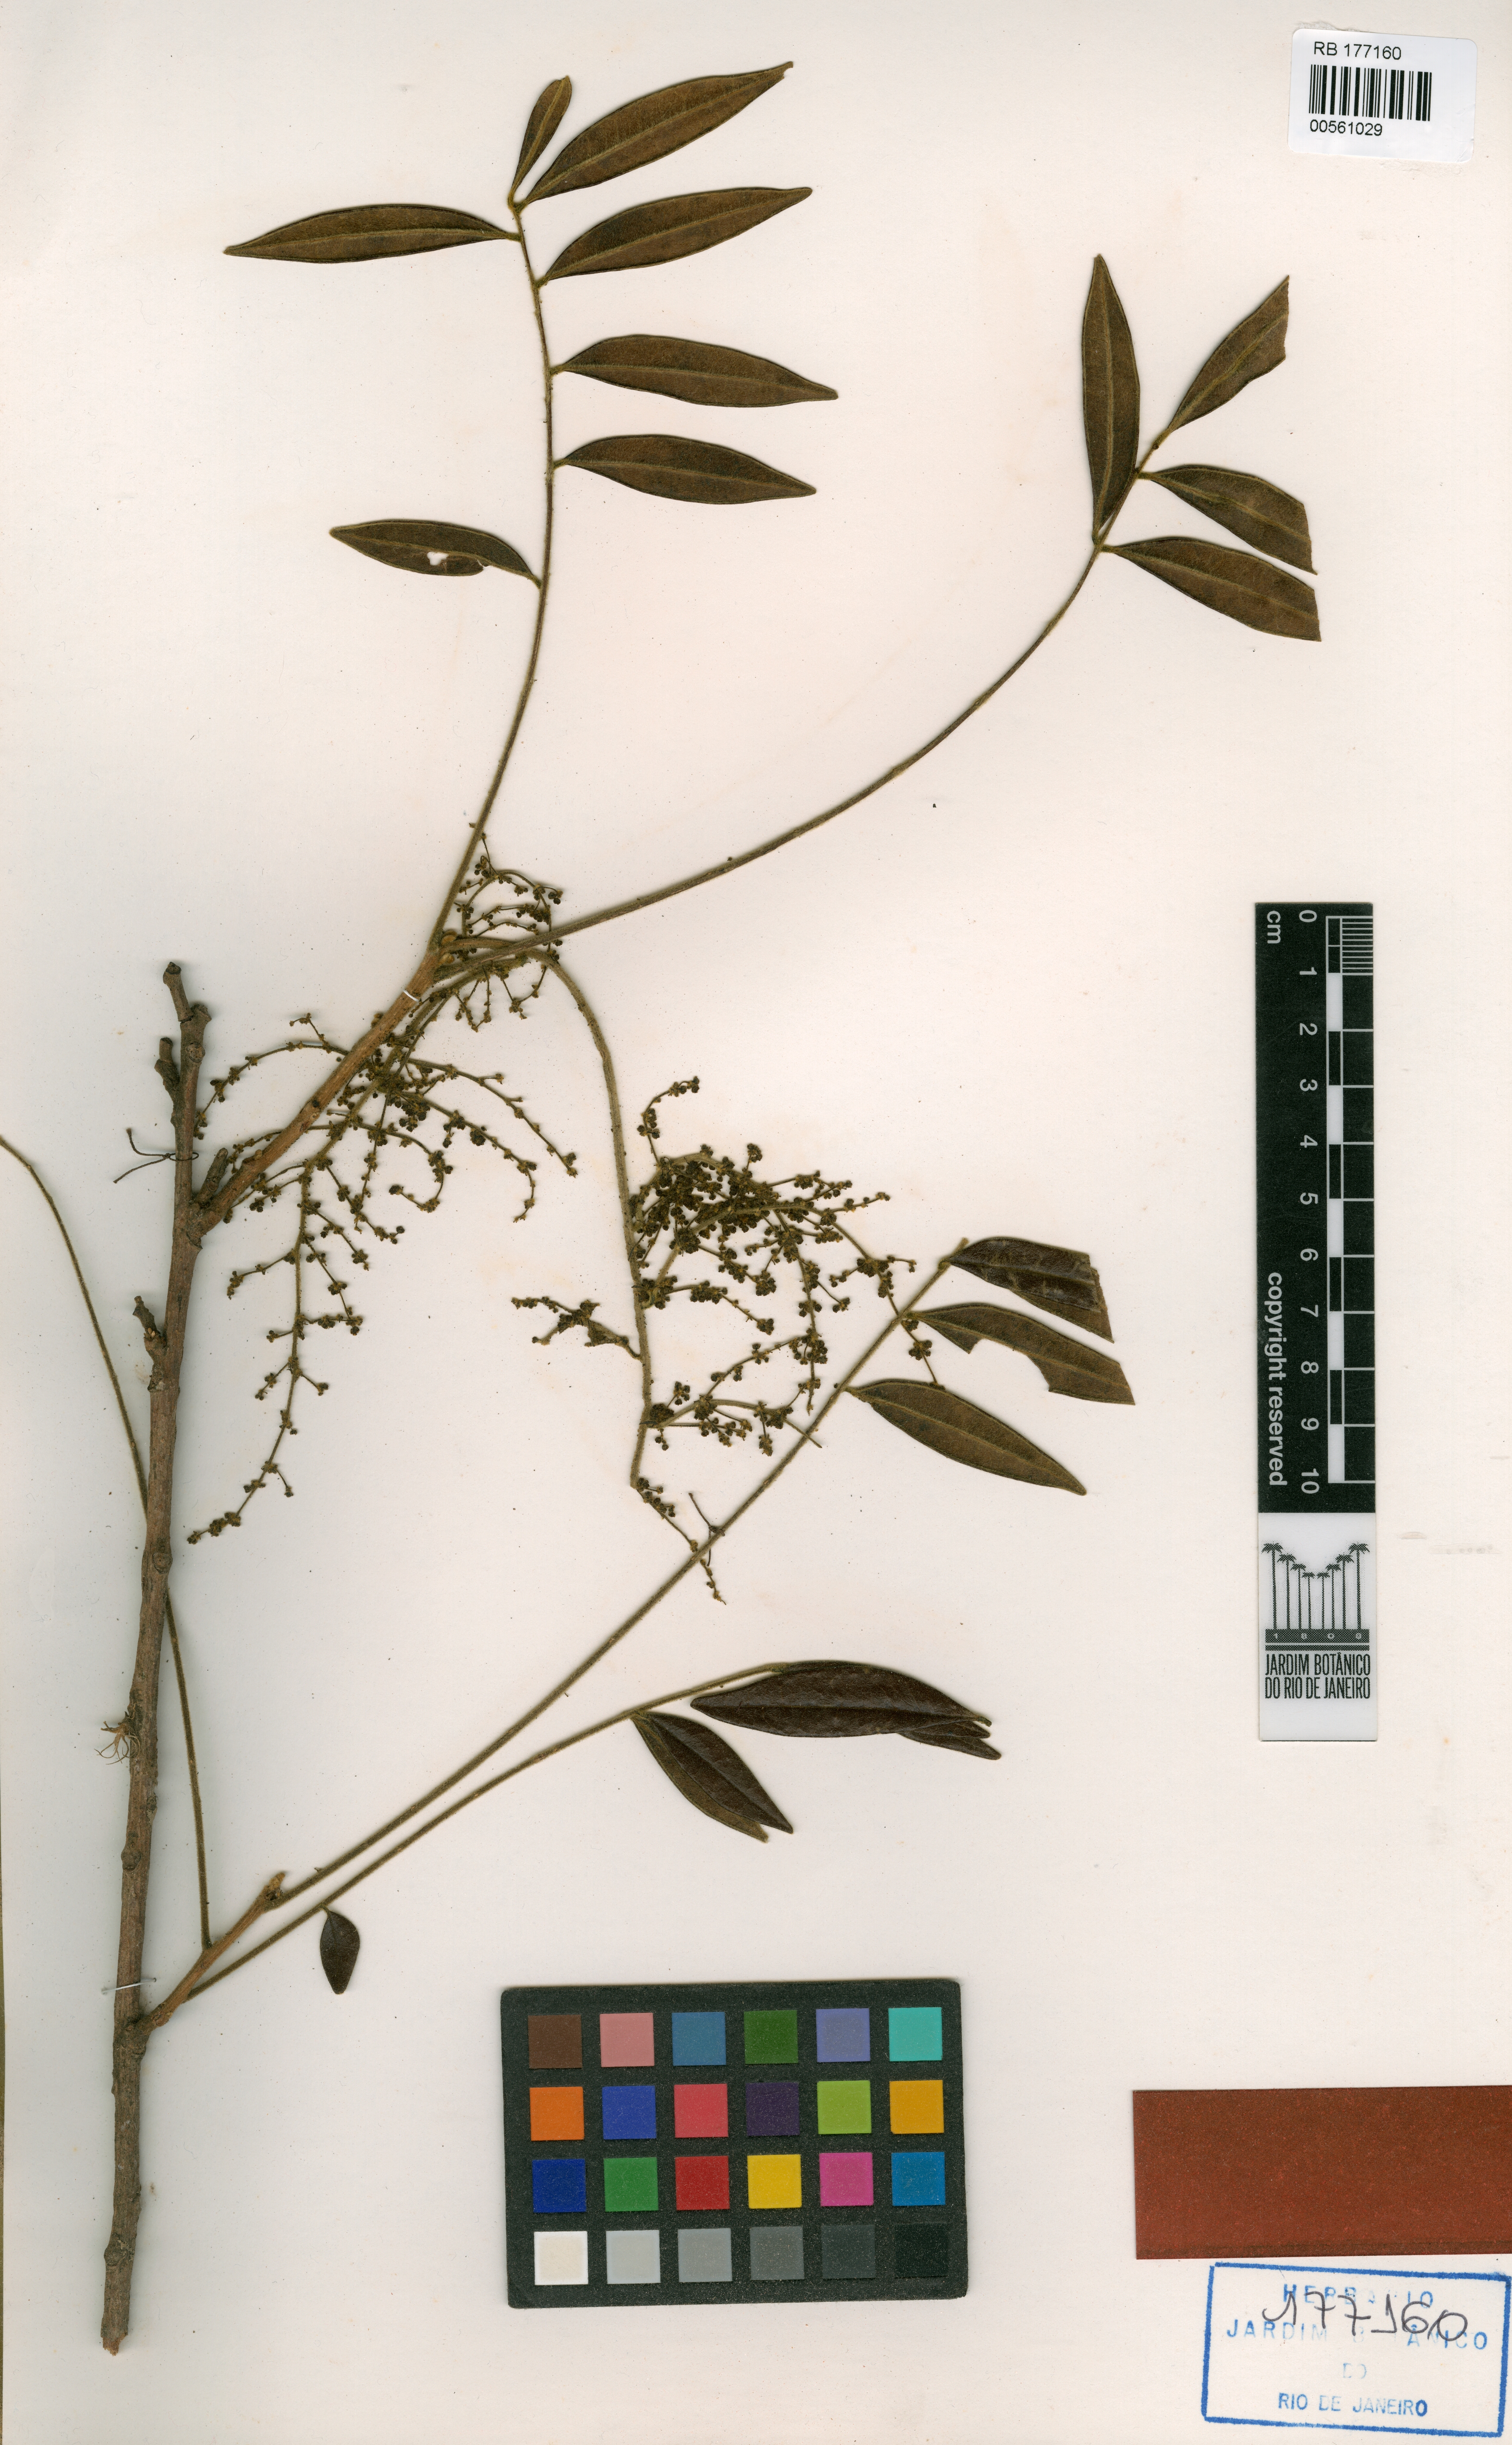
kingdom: Plantae
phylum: Tracheophyta
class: Magnoliopsida
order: Picramniales
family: Picramniaceae
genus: Picramnia
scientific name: Picramnia excelsa
